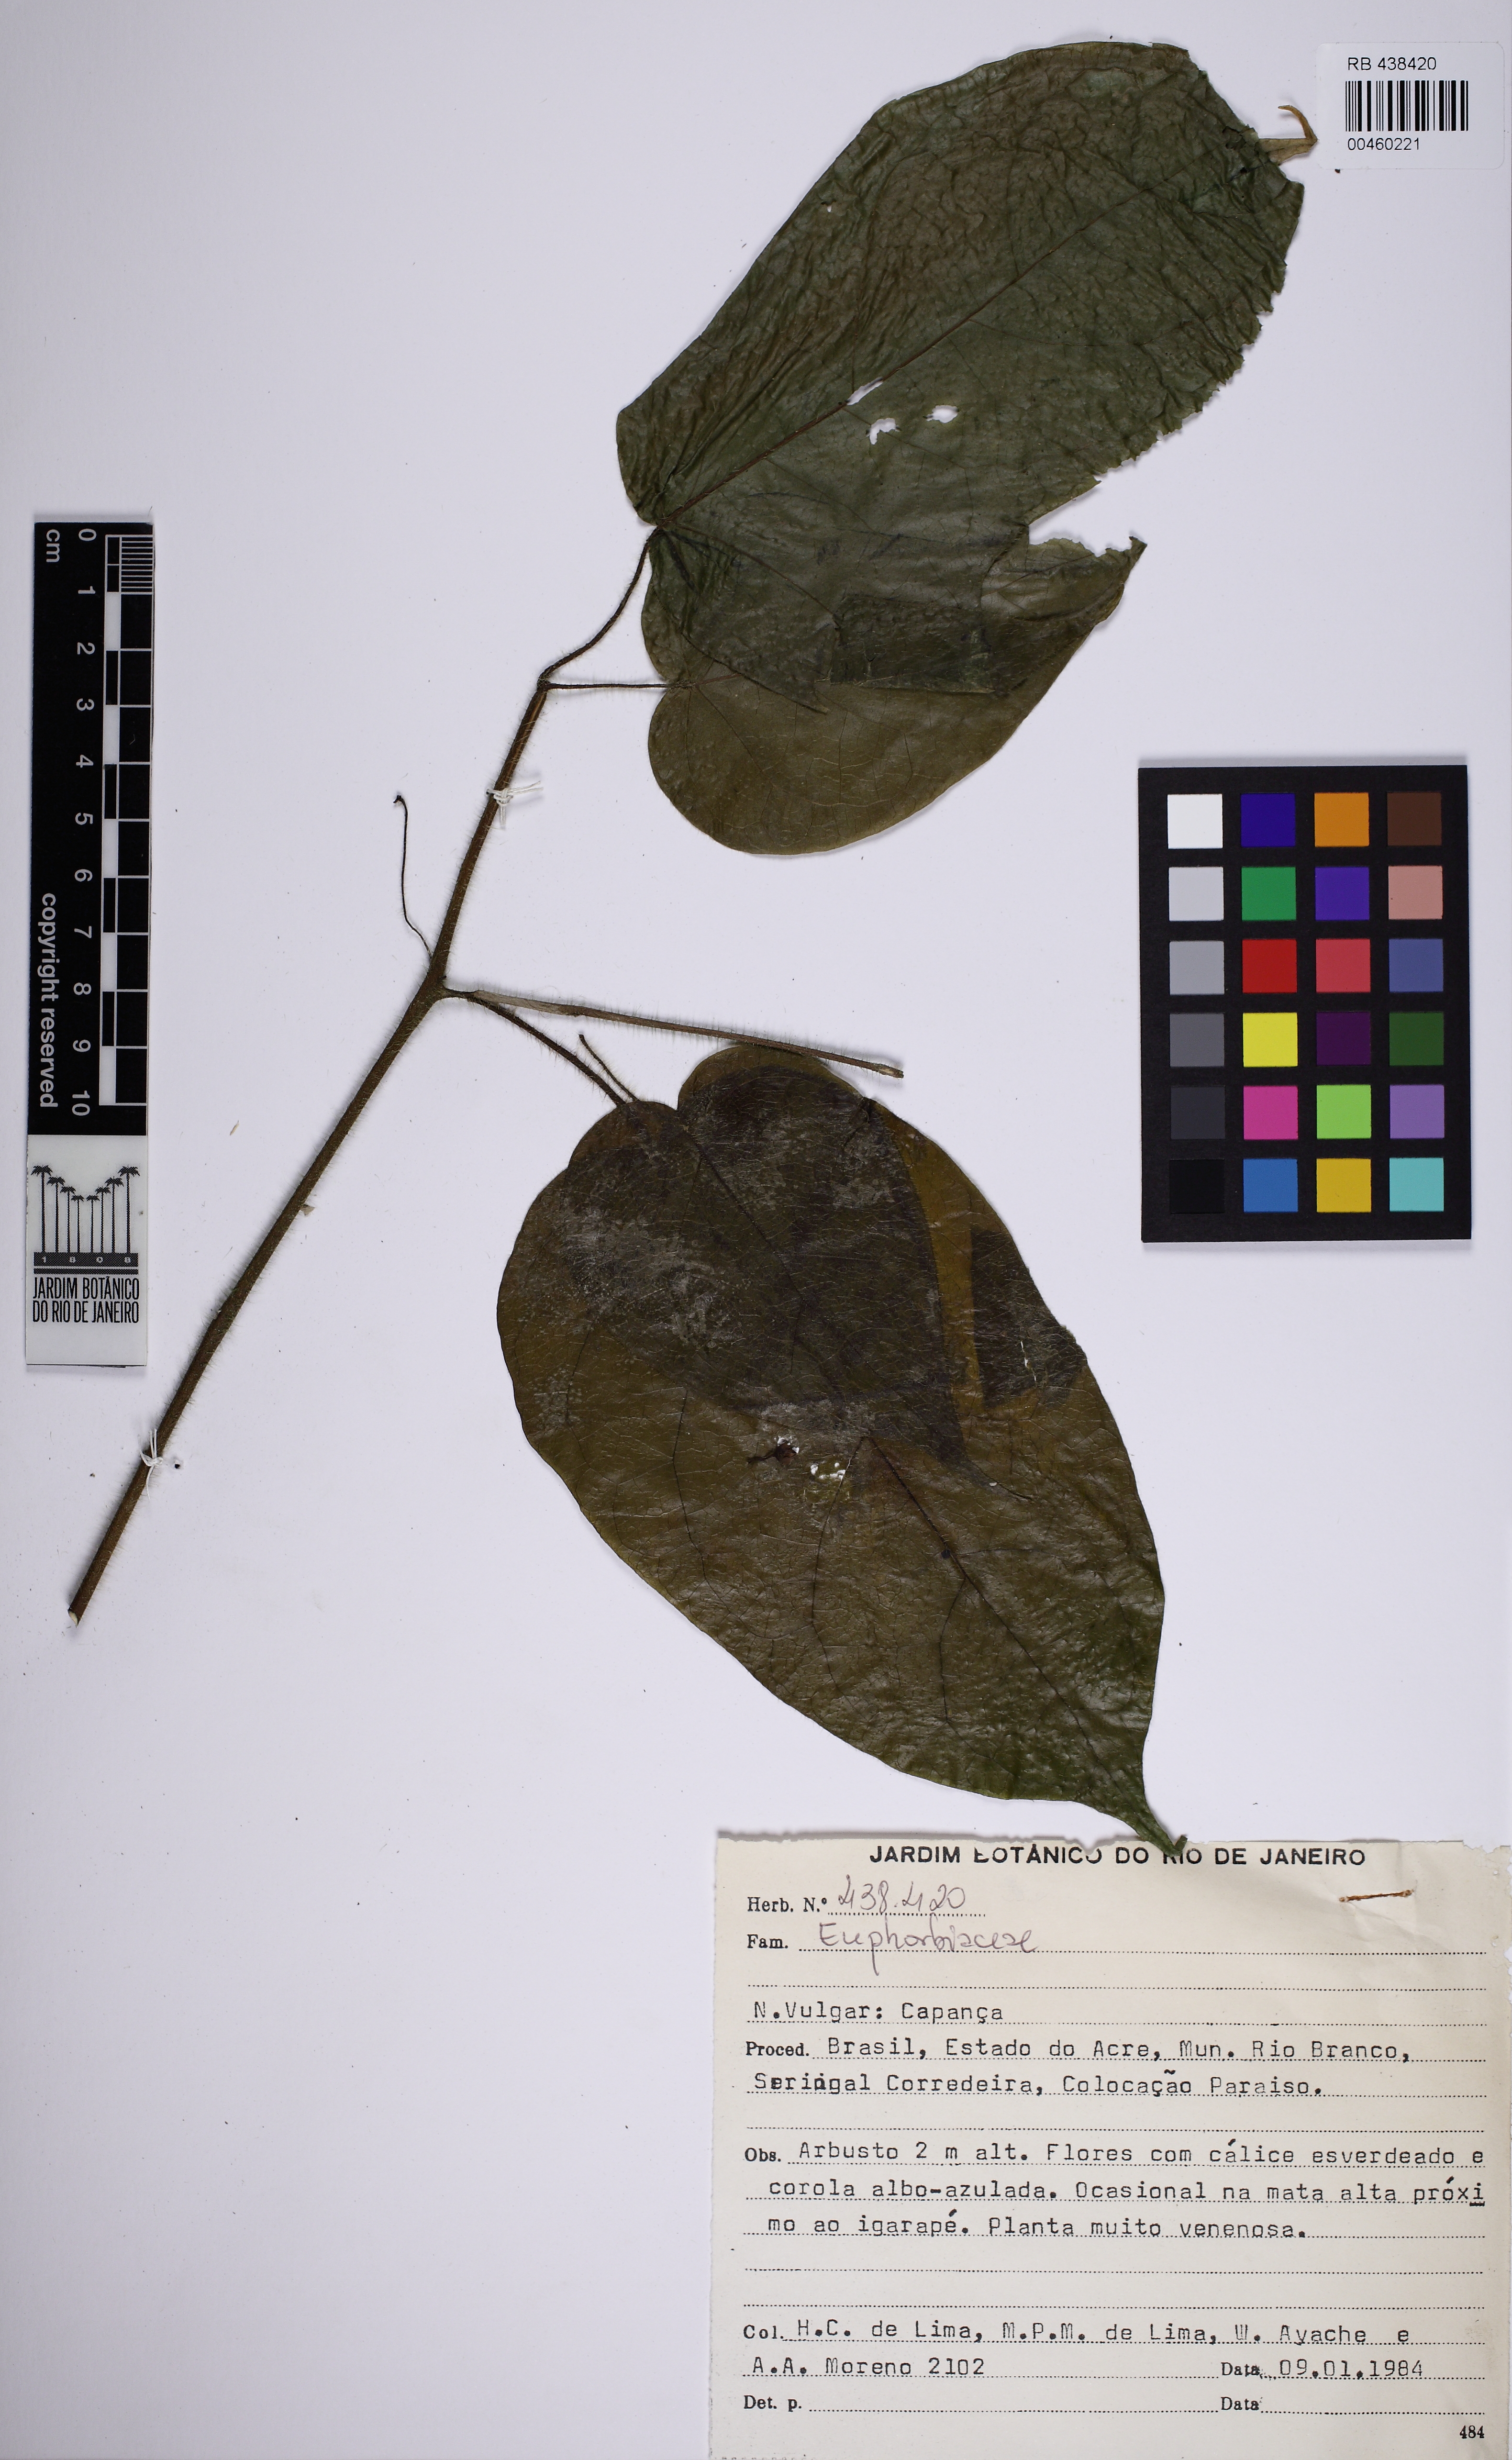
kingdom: Plantae
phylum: Tracheophyta
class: Magnoliopsida
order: Solanales
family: Solanaceae
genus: Solanum
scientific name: Solanum
